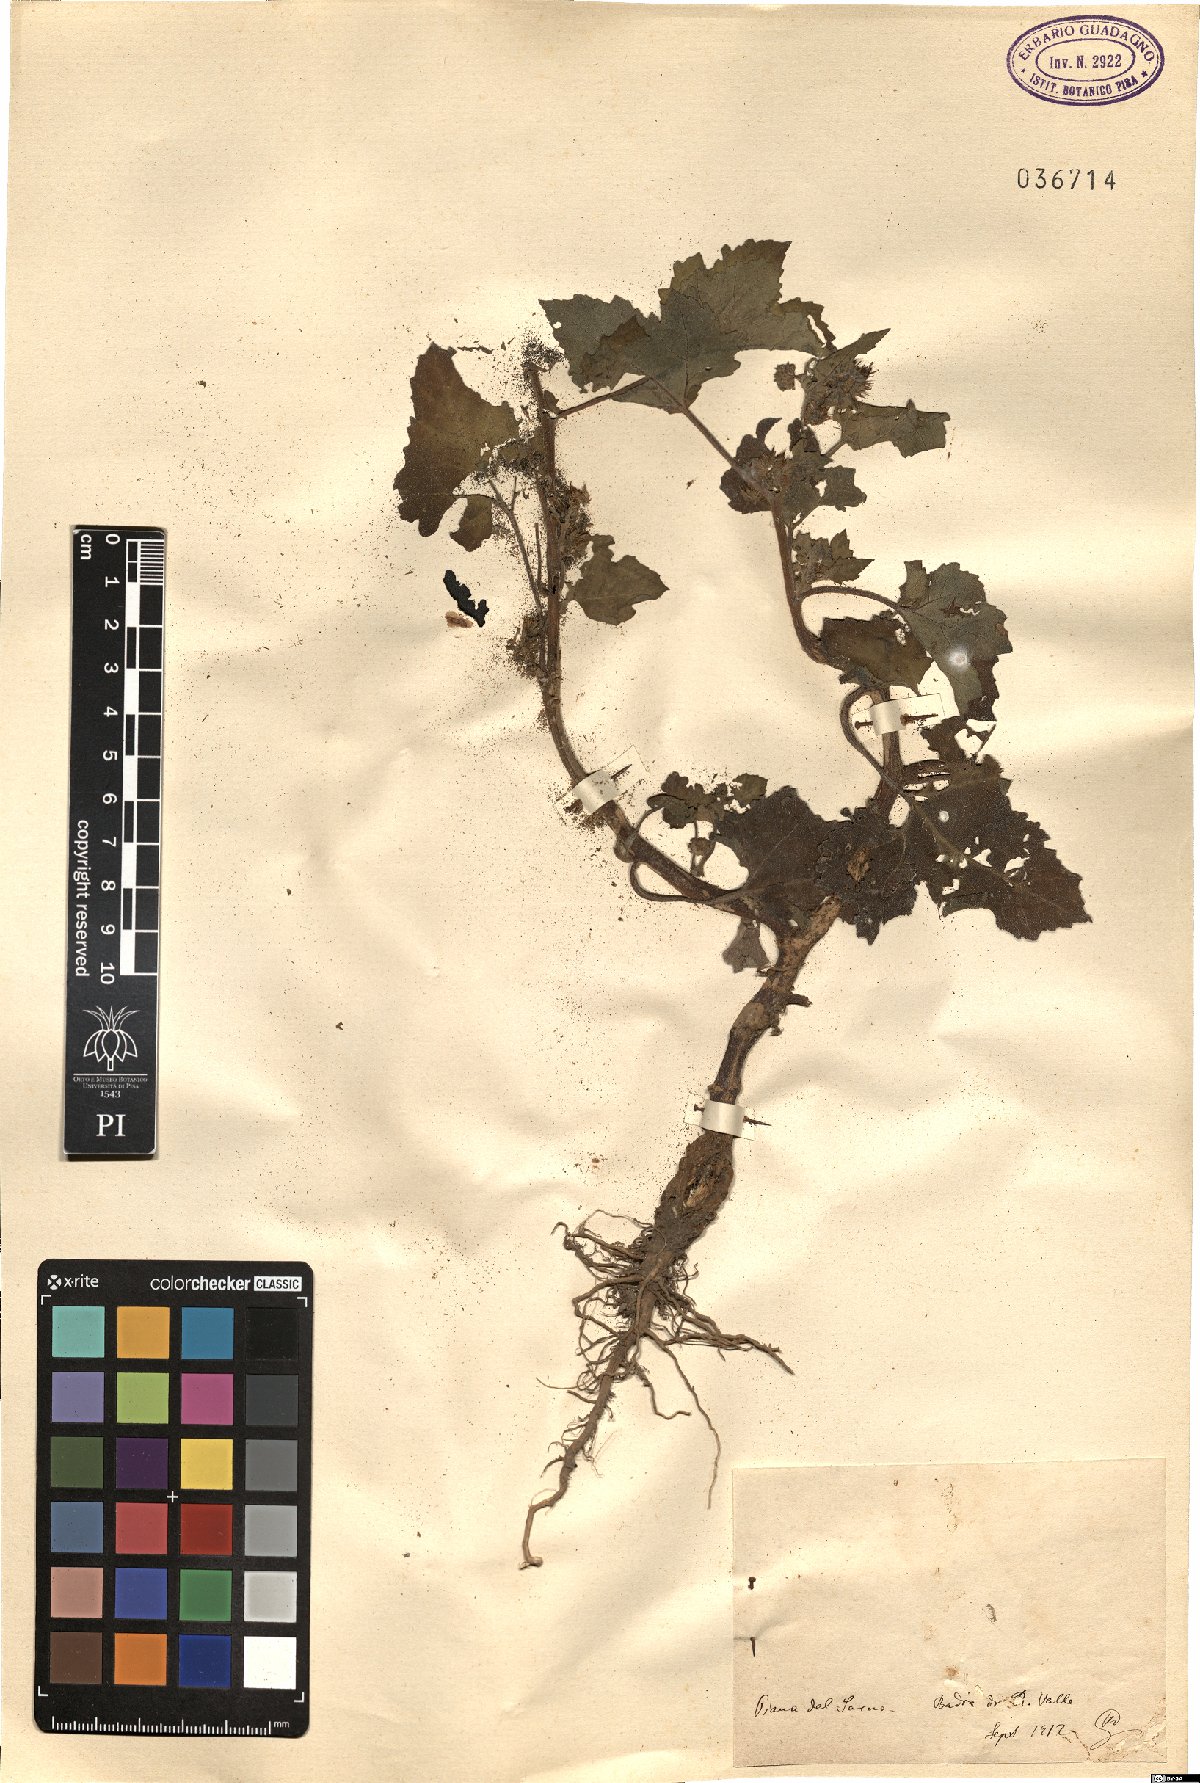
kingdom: Plantae
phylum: Tracheophyta
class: Magnoliopsida
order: Asterales
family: Asteraceae
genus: Xanthium
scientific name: Xanthium
